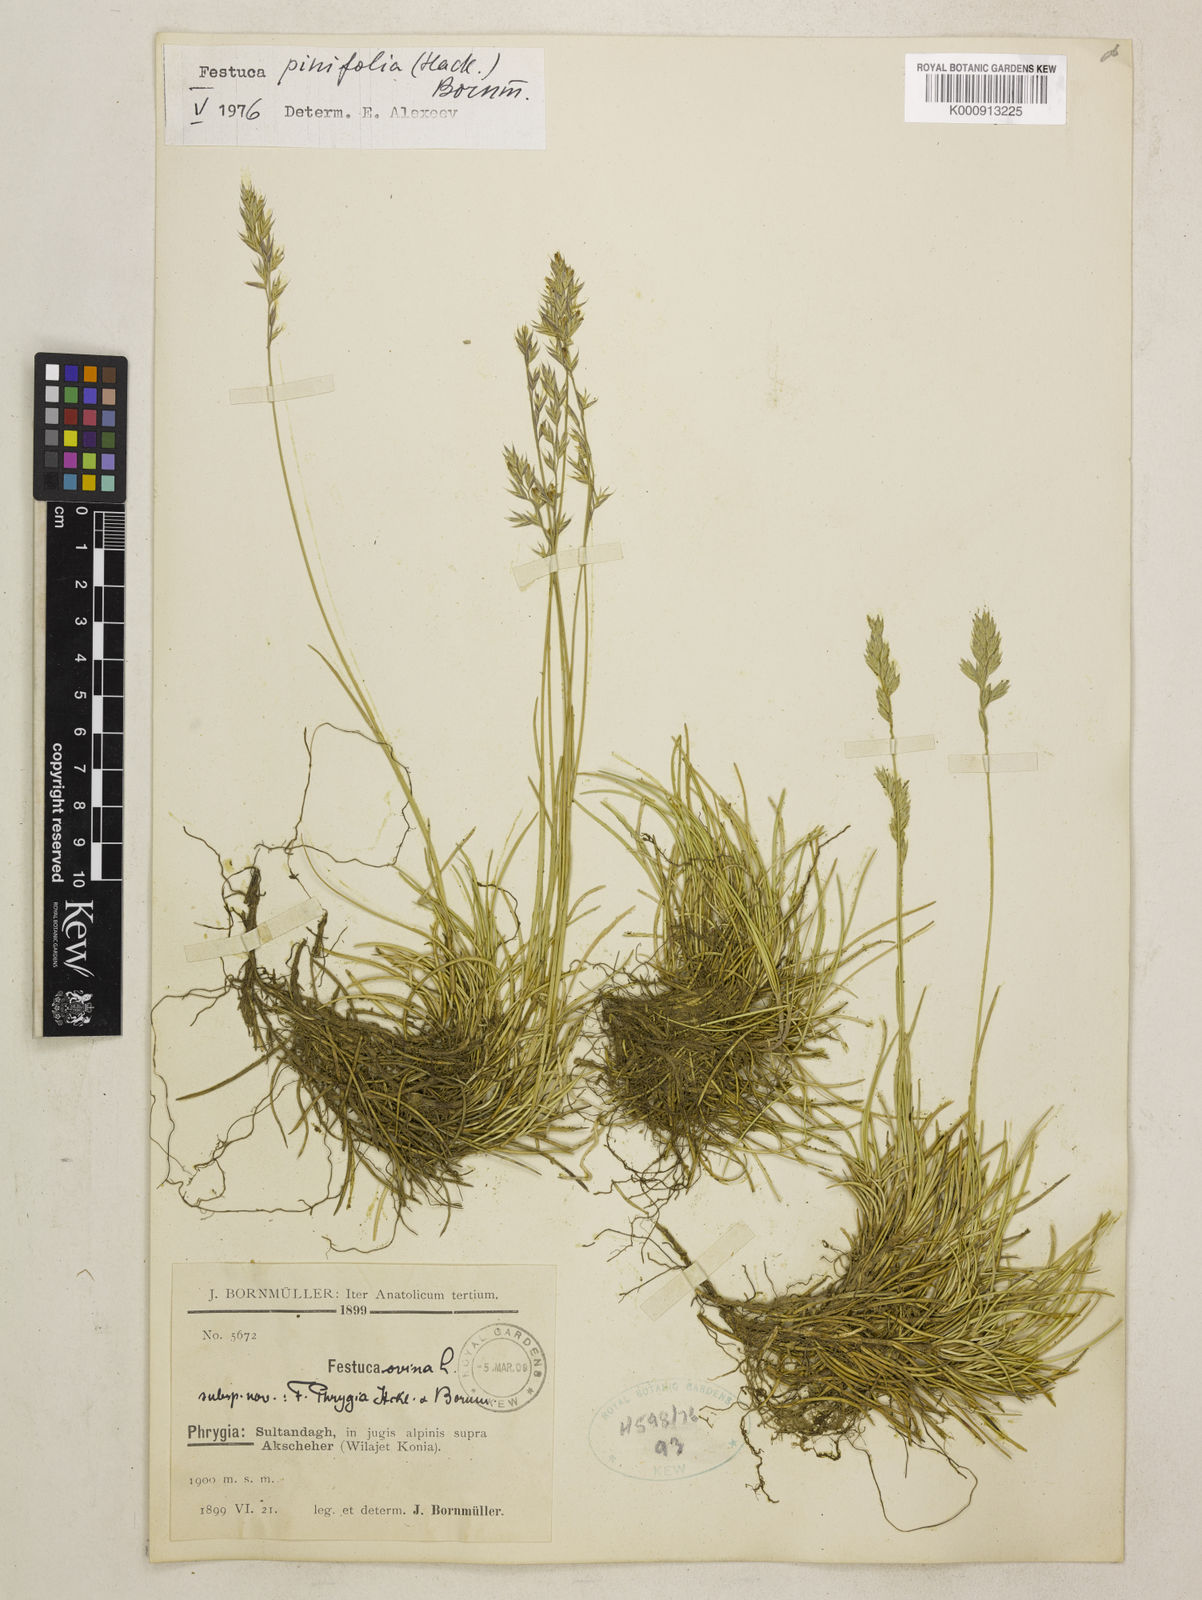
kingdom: Plantae
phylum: Tracheophyta
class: Liliopsida
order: Poales
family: Poaceae
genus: Festuca
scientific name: Festuca pinifolia
